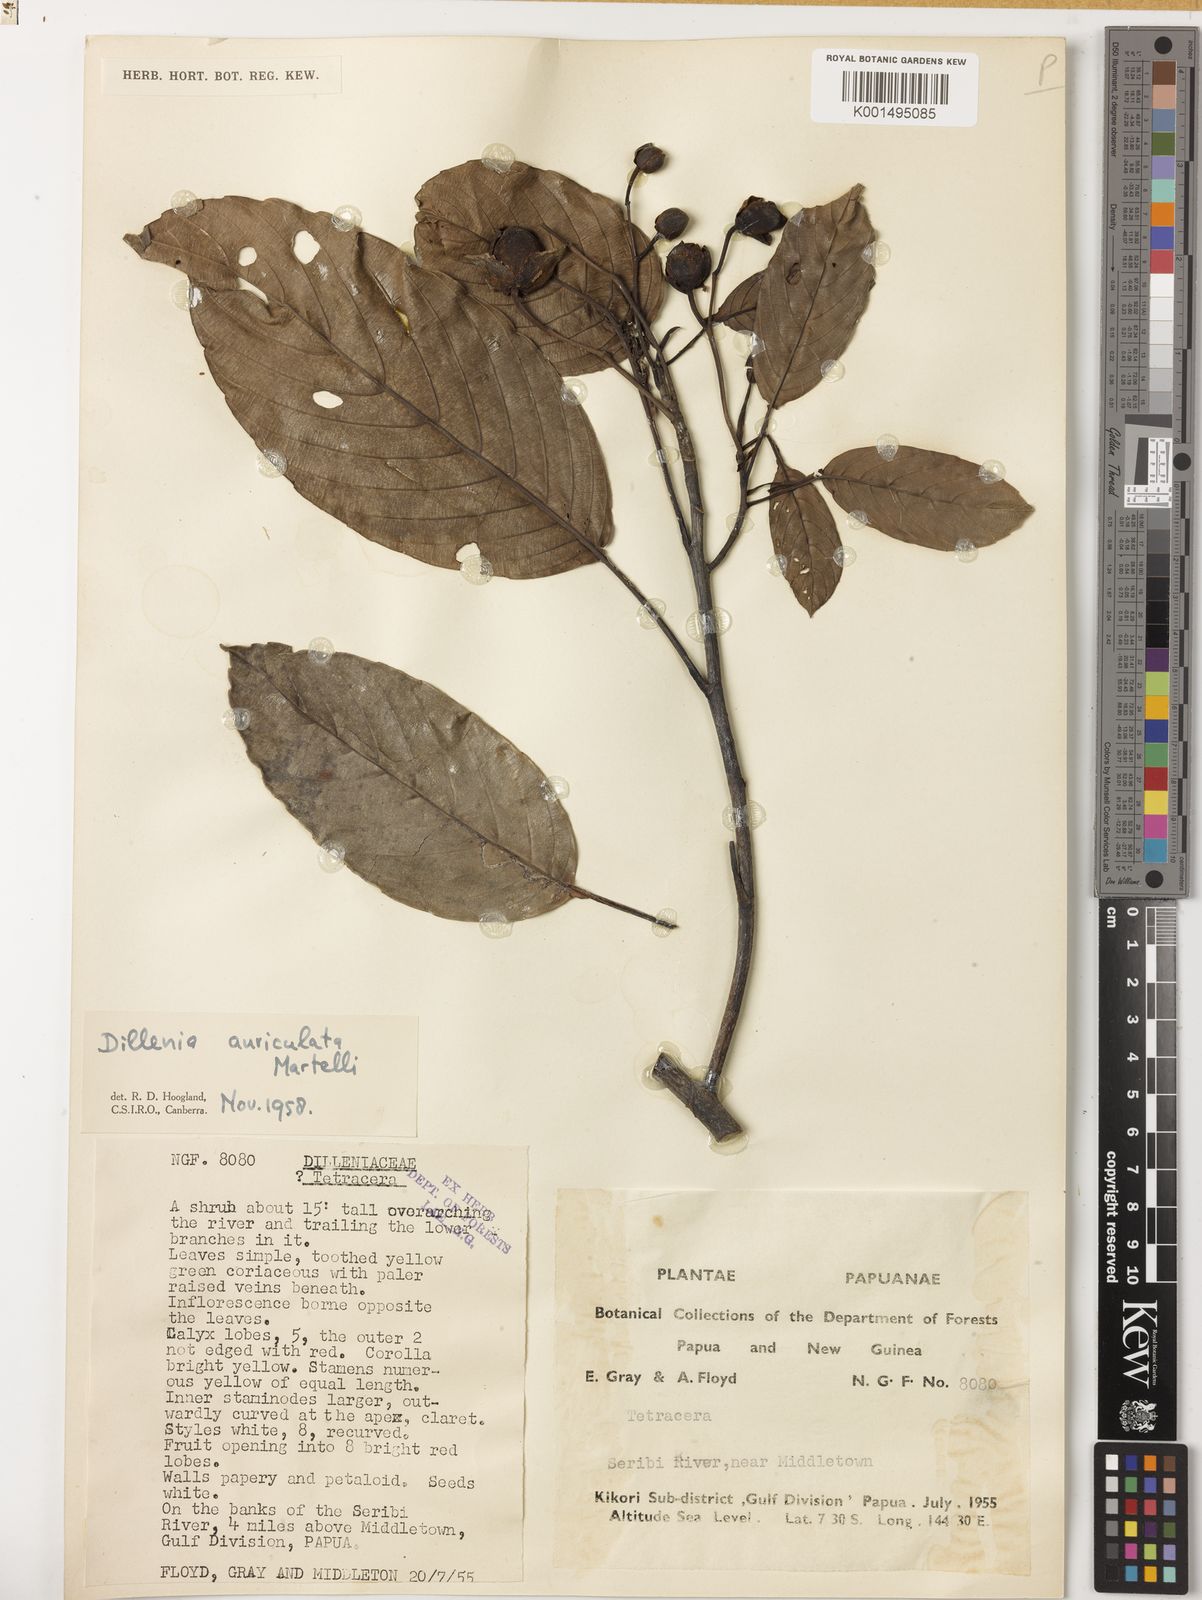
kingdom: Plantae
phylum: Tracheophyta
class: Magnoliopsida
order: Dilleniales
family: Dilleniaceae
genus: Dillenia
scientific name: Dillenia auriculata
